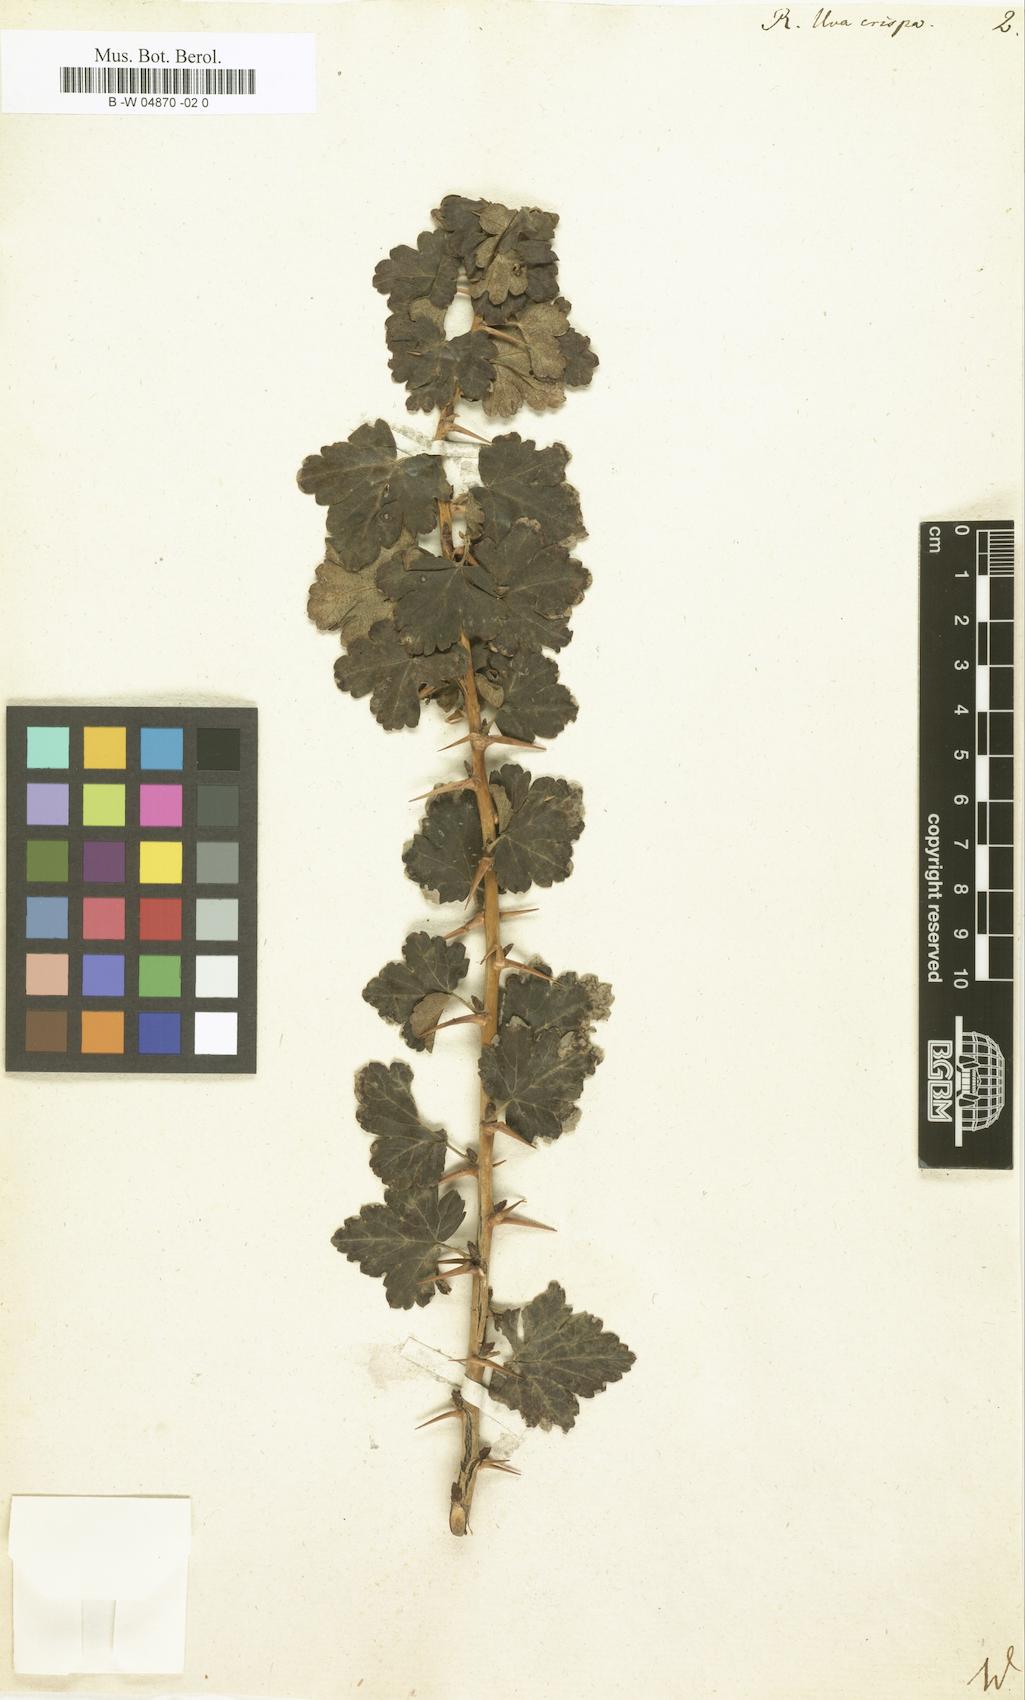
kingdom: Plantae
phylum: Tracheophyta
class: Magnoliopsida
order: Saxifragales
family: Grossulariaceae
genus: Ribes
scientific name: Ribes uva-crispa
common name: Gooseberry
